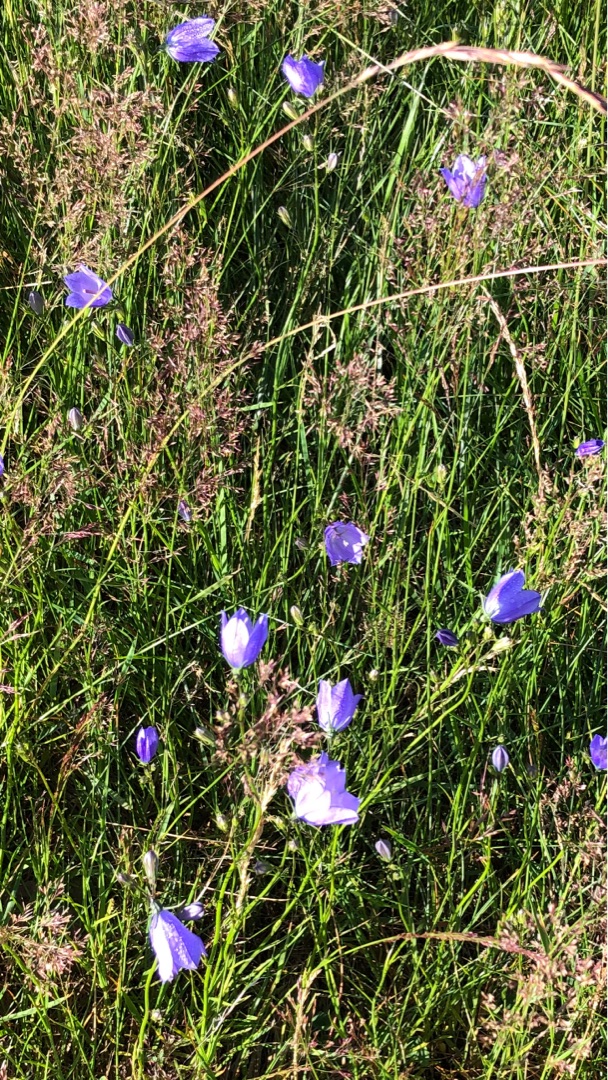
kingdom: Plantae
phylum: Tracheophyta
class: Magnoliopsida
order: Asterales
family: Campanulaceae
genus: Campanula
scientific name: Campanula rotundifolia
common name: Liden klokke
